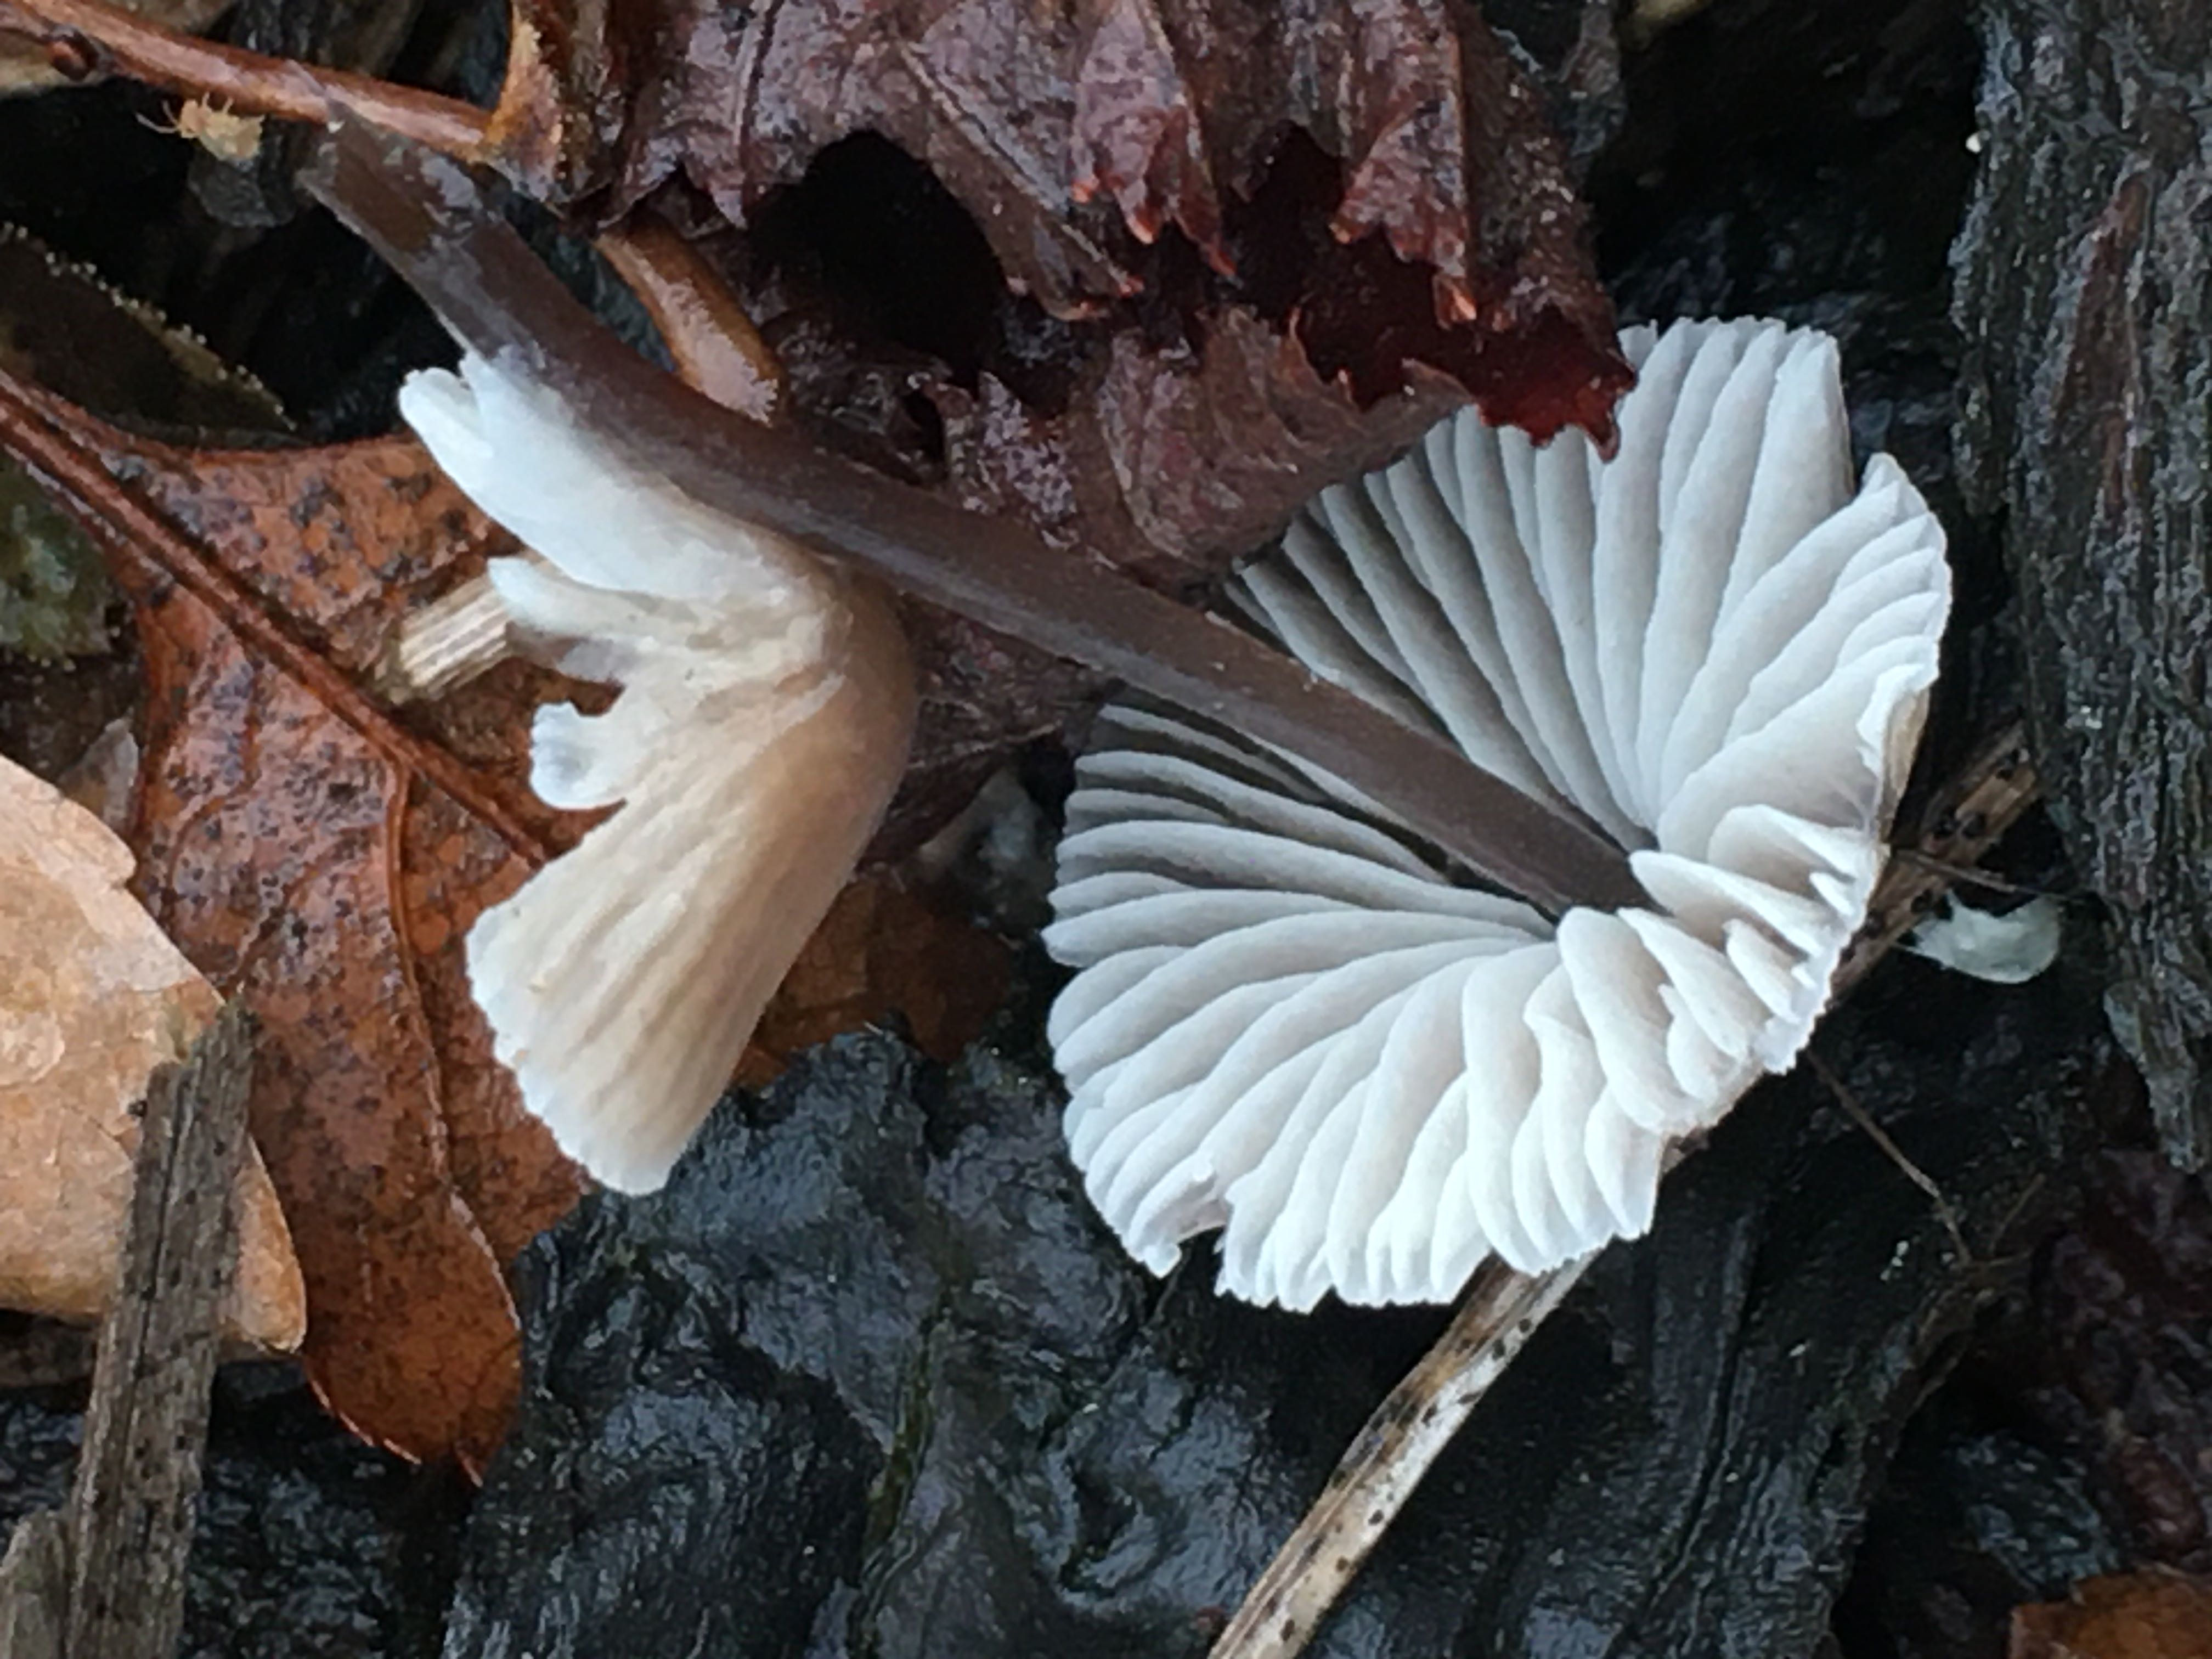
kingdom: Fungi
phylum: Basidiomycota
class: Agaricomycetes
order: Agaricales
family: Mycenaceae
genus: Mycena
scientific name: Mycena
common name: huesvamp
